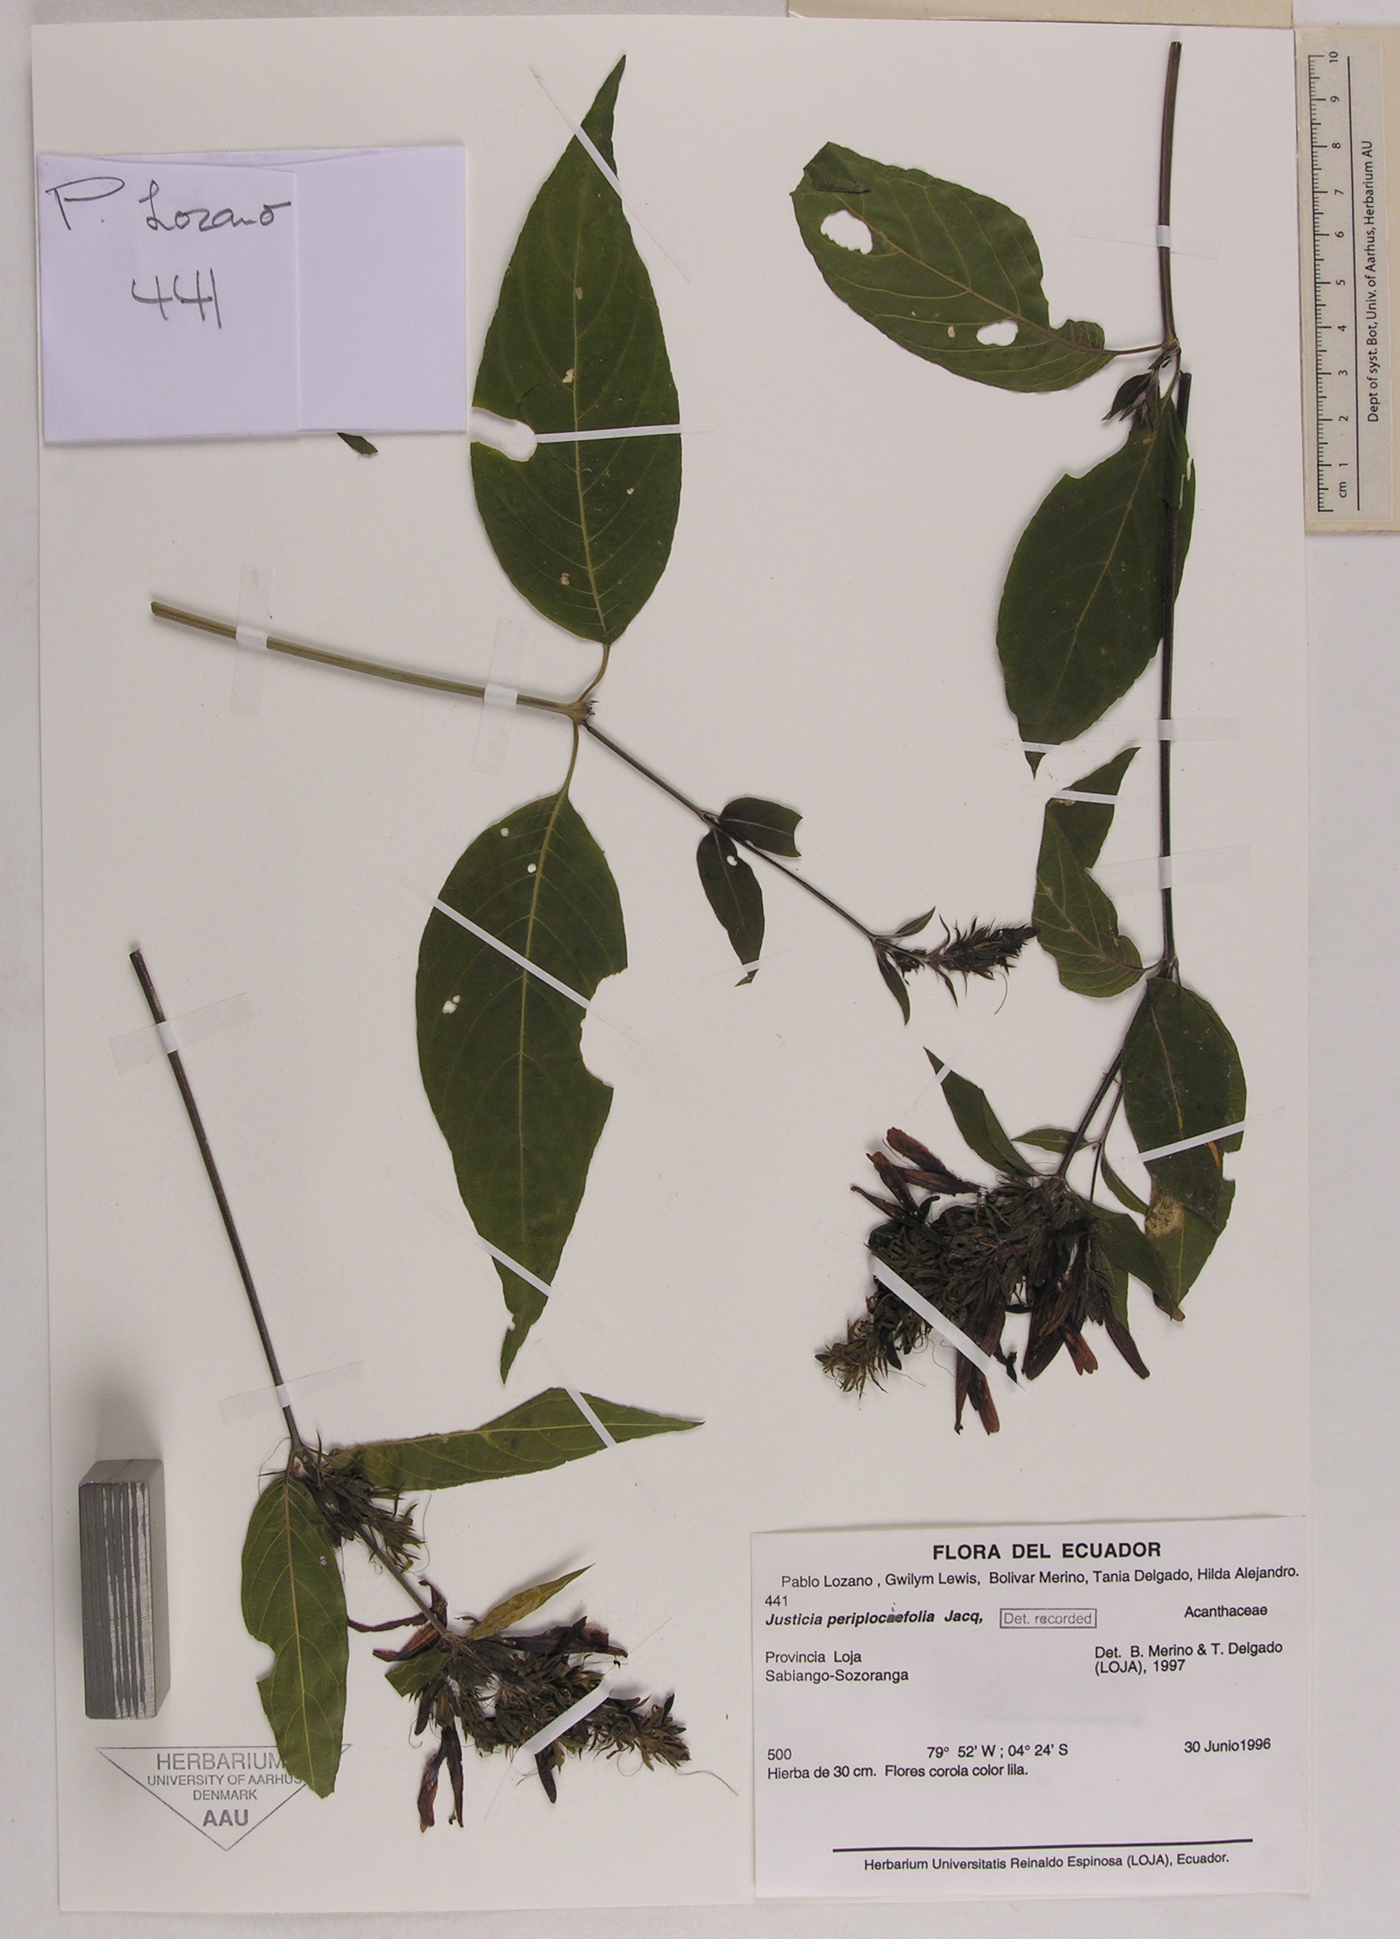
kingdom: Plantae
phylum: Tracheophyta
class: Magnoliopsida
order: Lamiales
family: Acanthaceae
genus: Justicia
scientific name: Justicia periplocifolia
